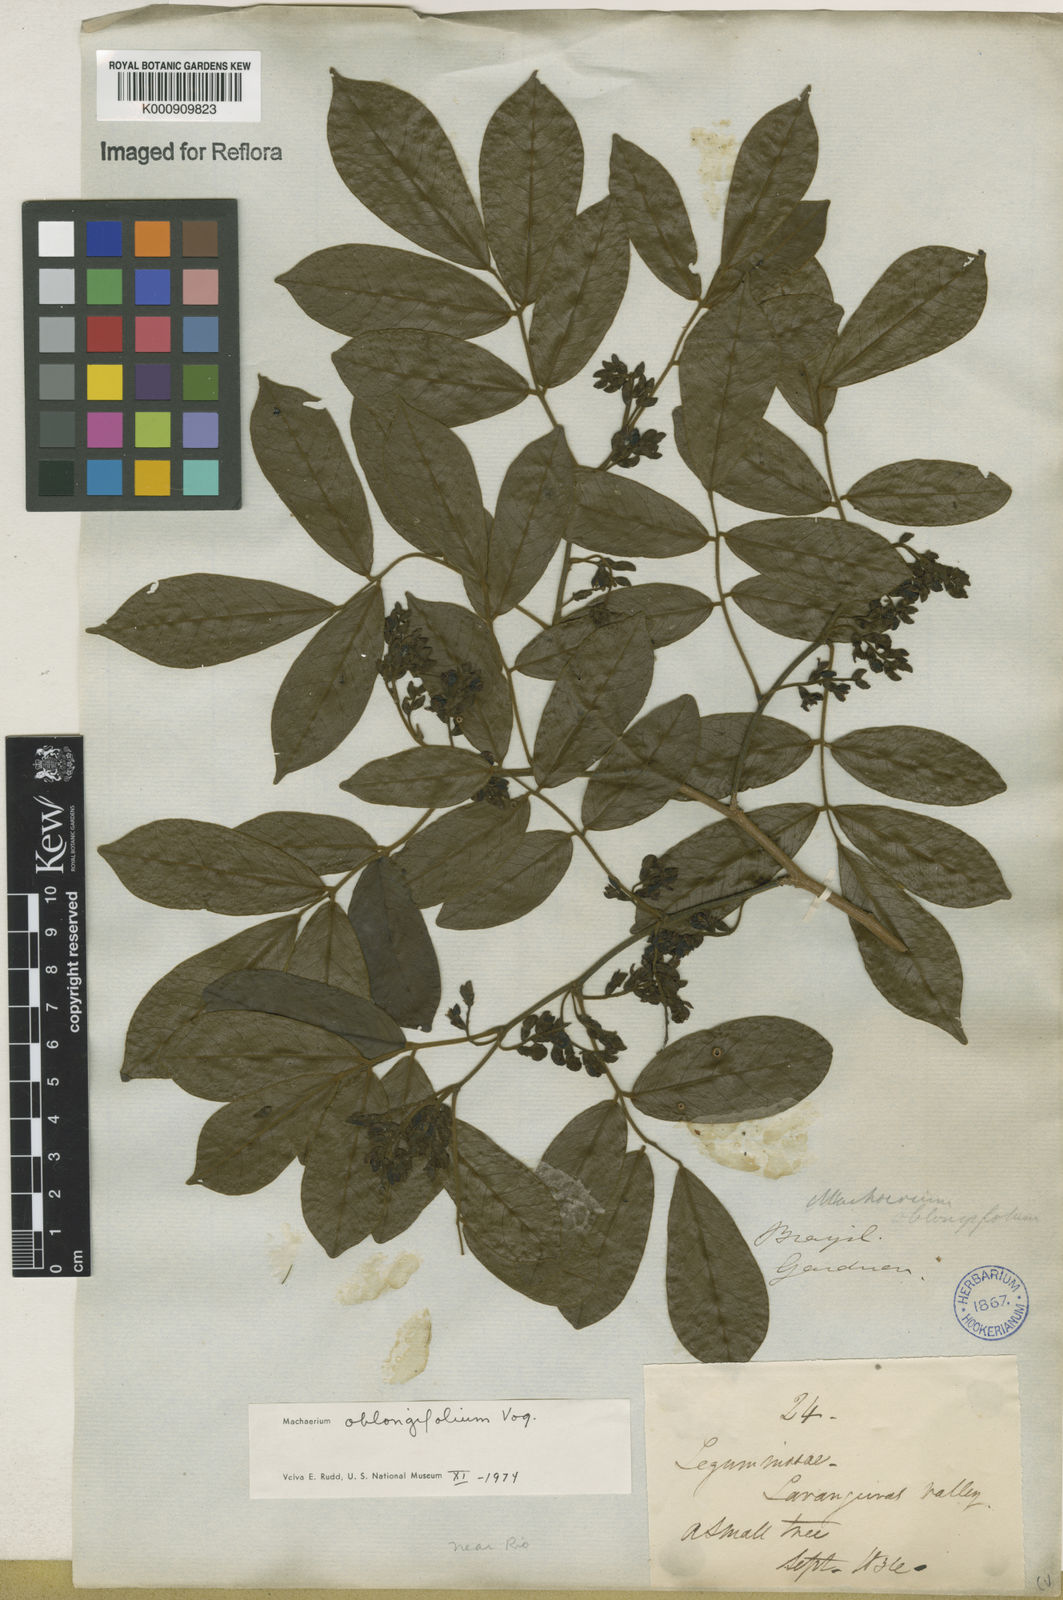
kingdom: Plantae
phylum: Tracheophyta
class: Magnoliopsida
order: Fabales
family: Fabaceae
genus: Machaerium
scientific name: Machaerium oblongifolium
